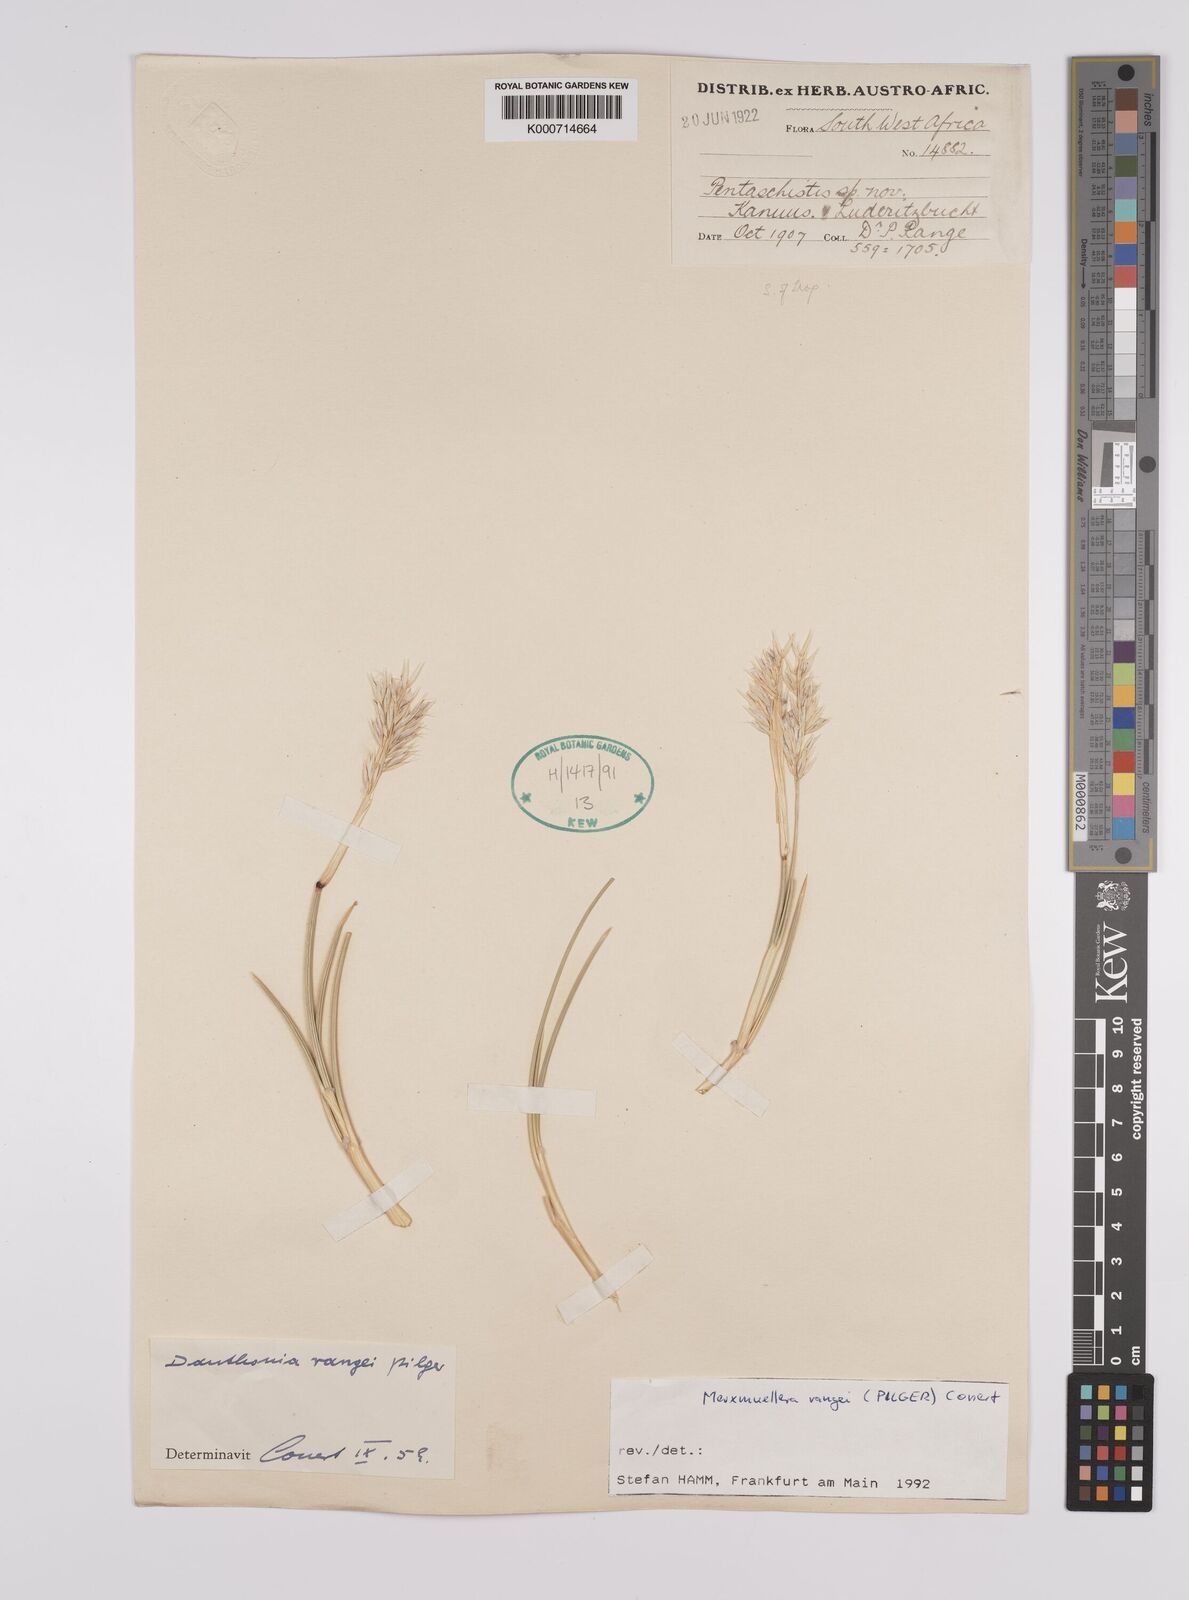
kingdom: Plantae
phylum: Tracheophyta
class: Liliopsida
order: Poales
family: Poaceae
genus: Rytidosperma
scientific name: Rytidosperma
